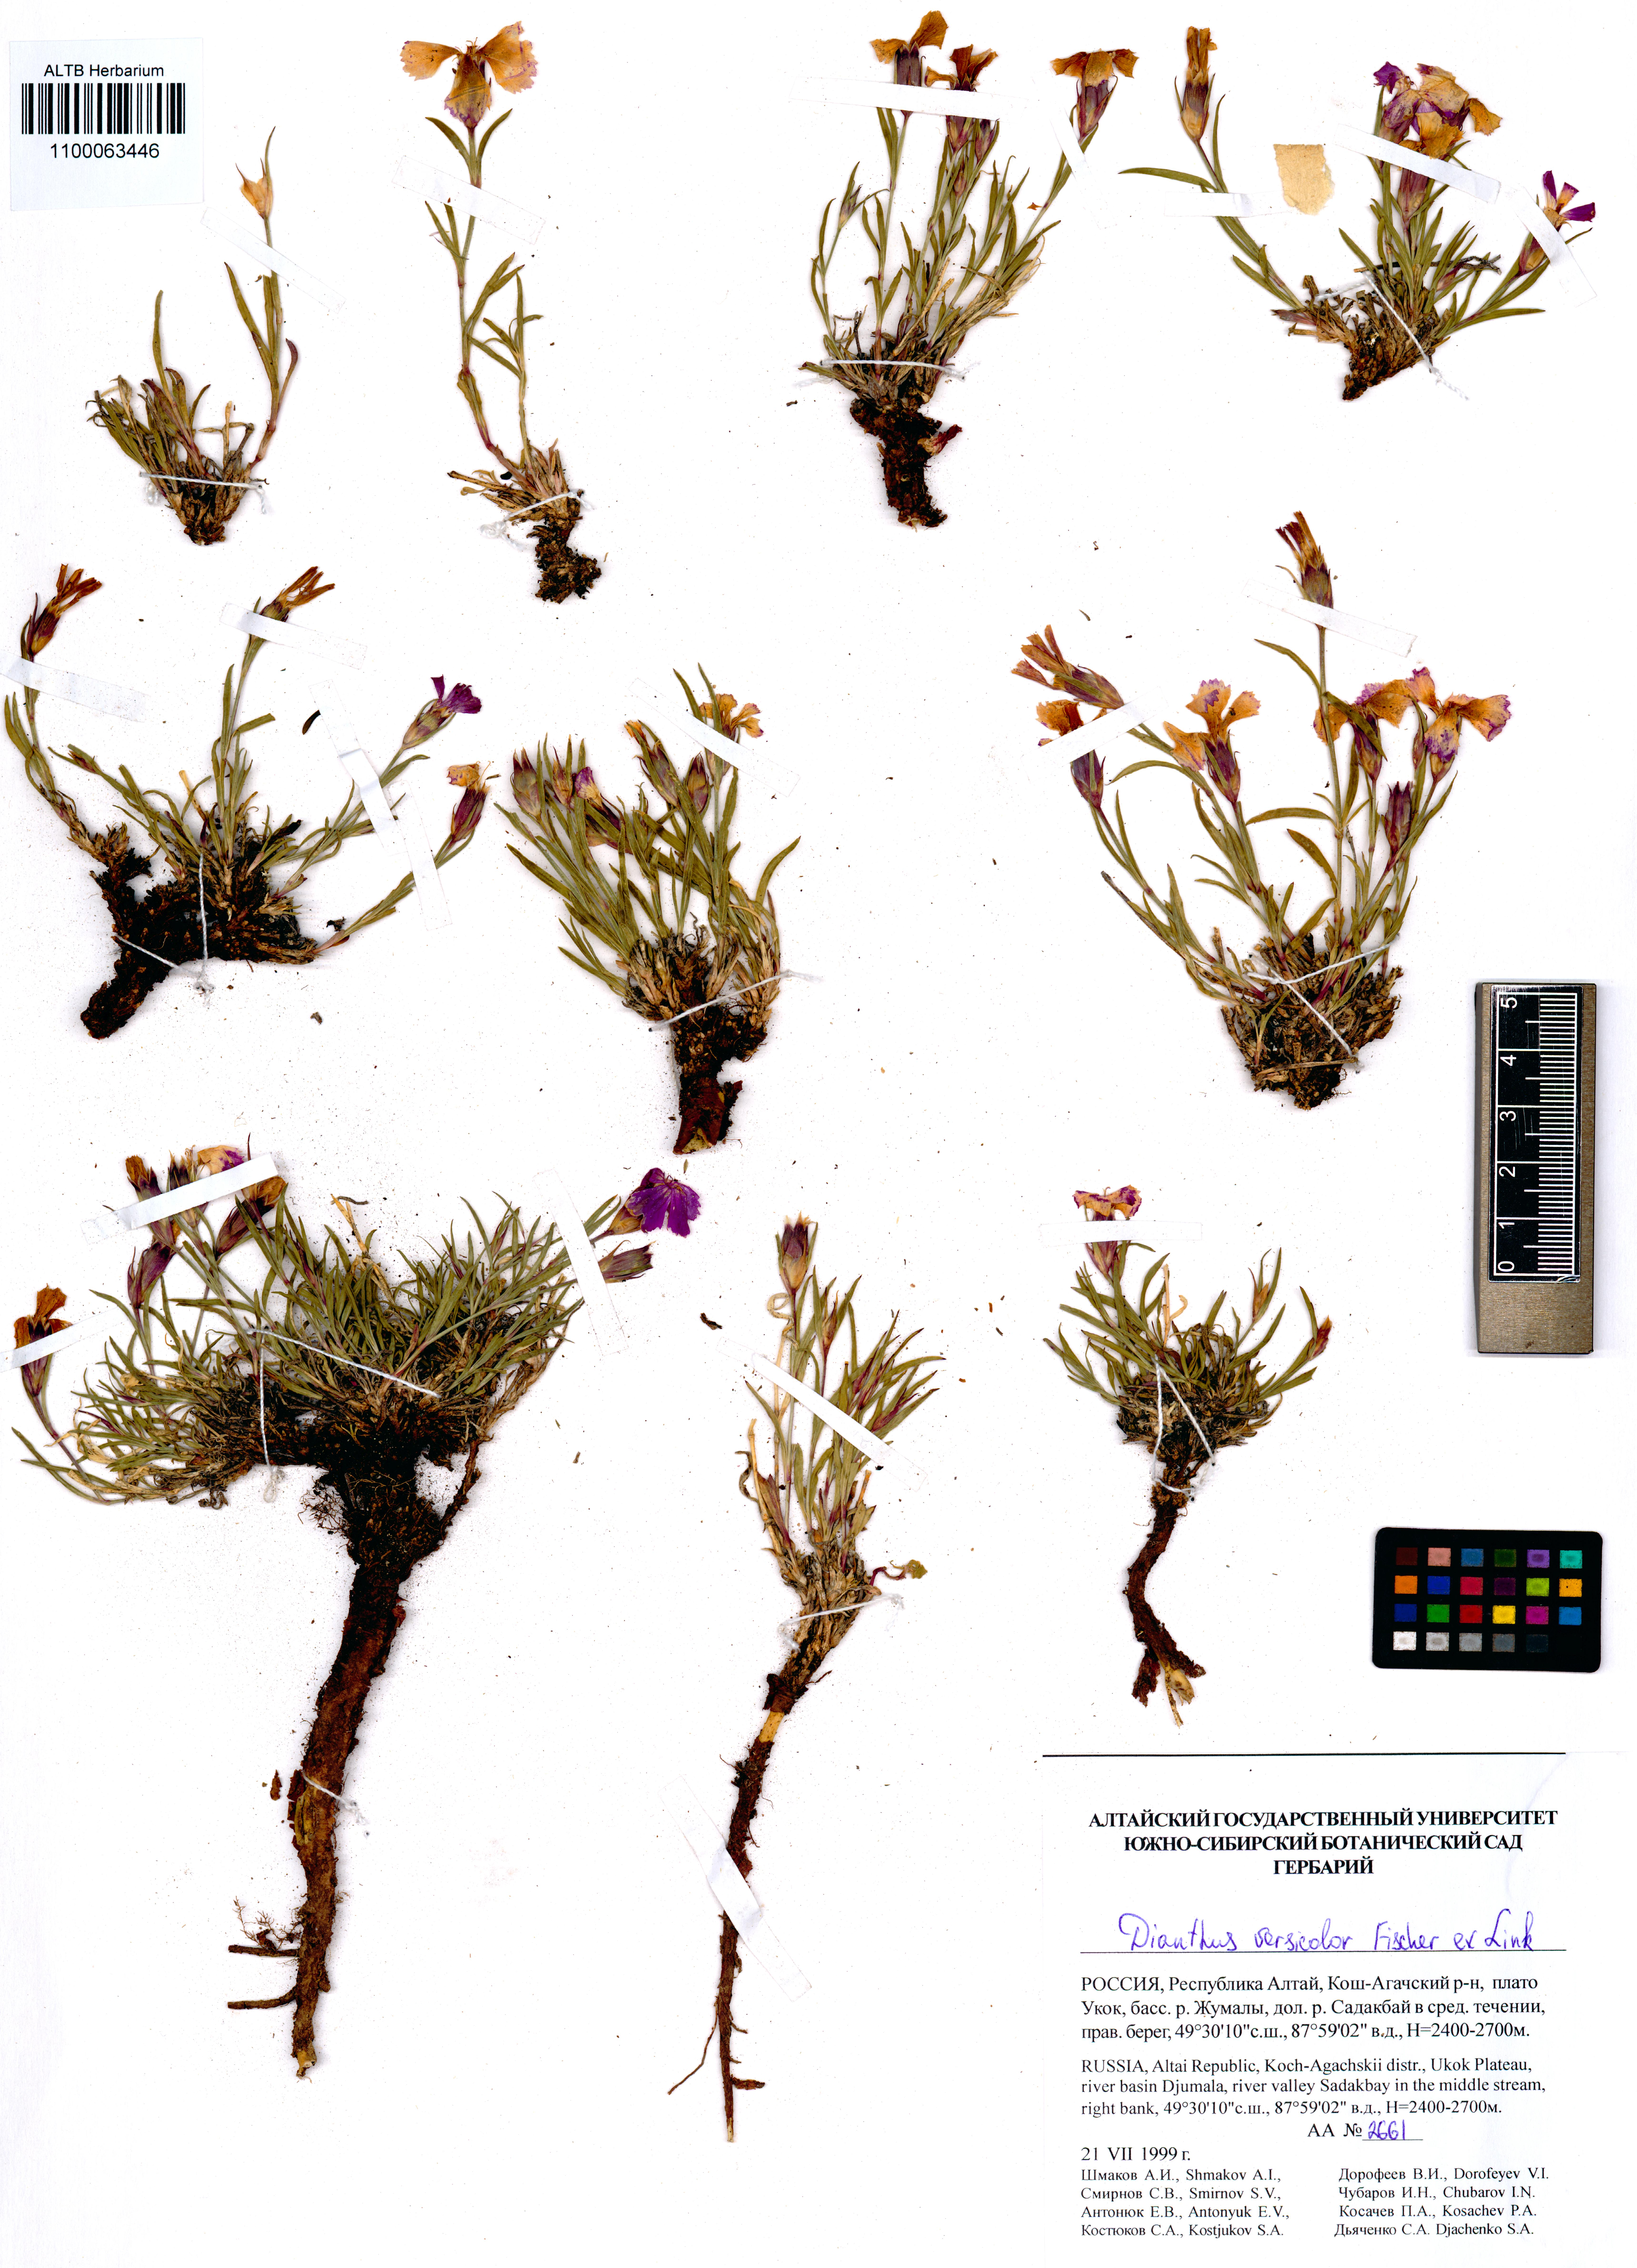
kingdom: Plantae
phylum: Tracheophyta
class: Magnoliopsida
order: Caryophyllales
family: Caryophyllaceae
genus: Dianthus
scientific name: Dianthus chinensis
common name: Rainbow pink
